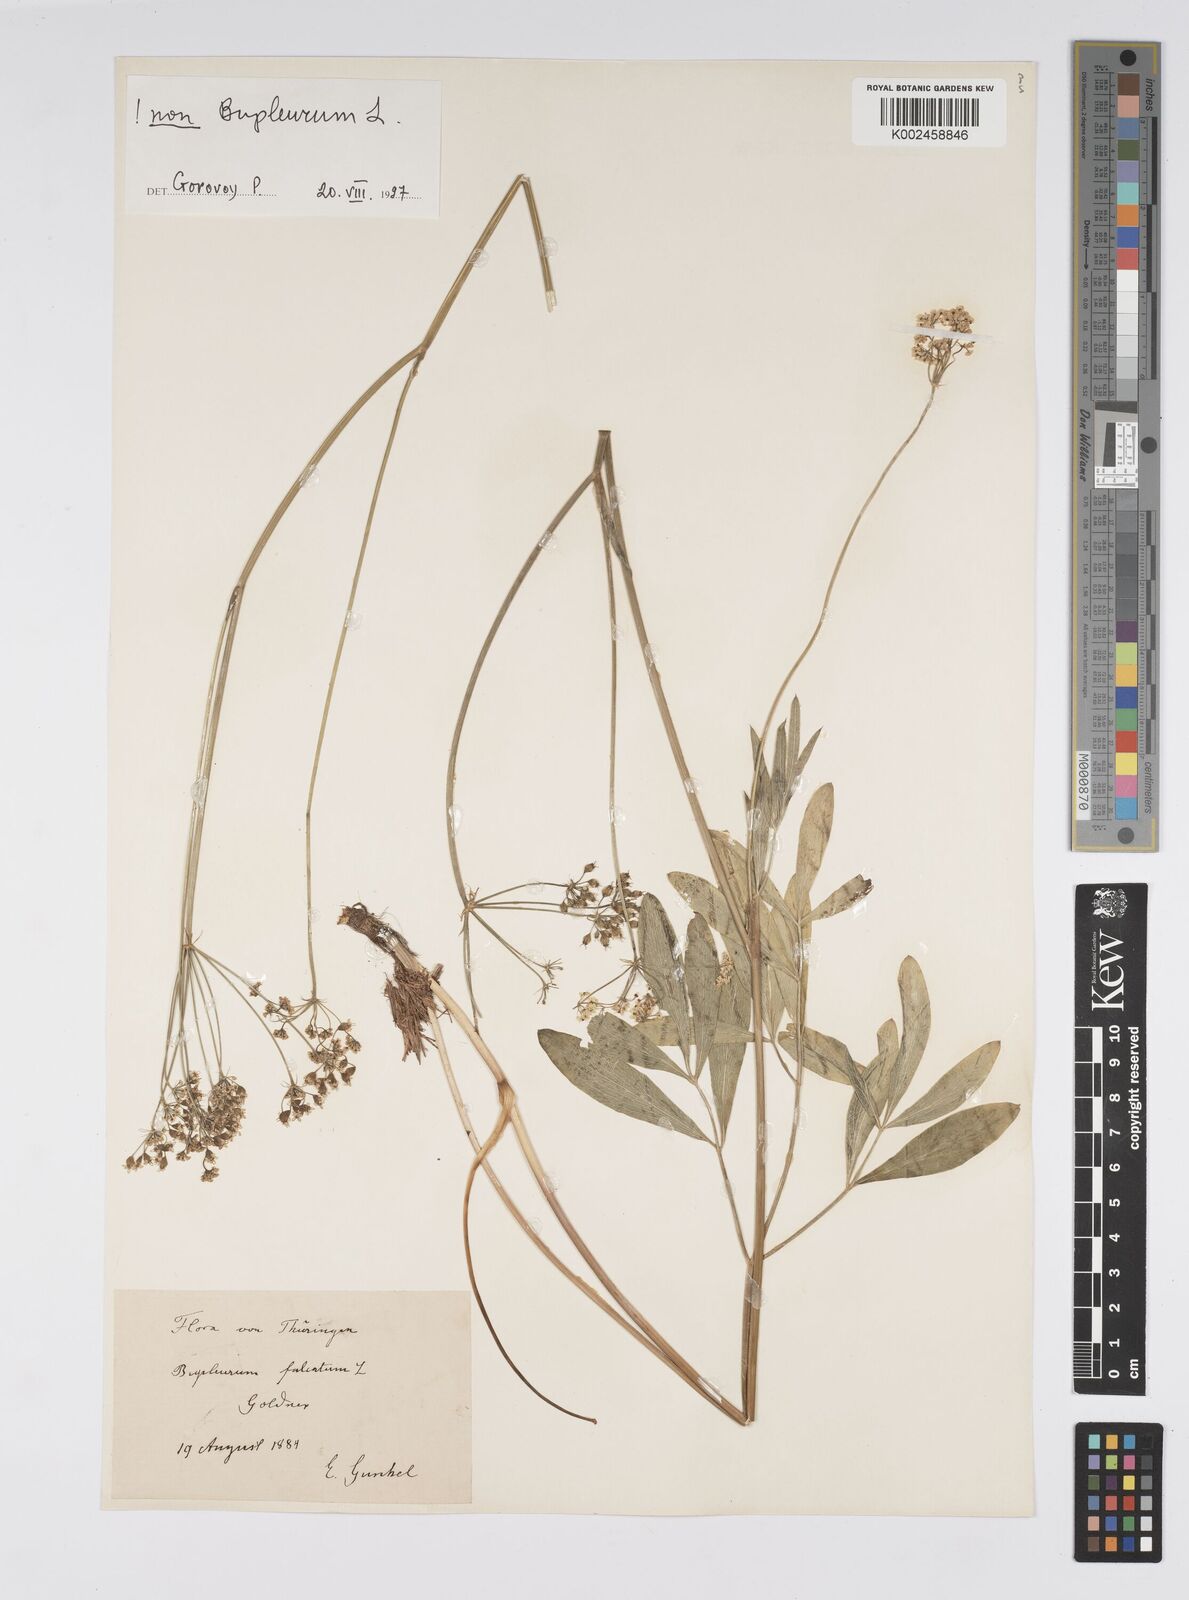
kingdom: Plantae
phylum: Tracheophyta
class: Magnoliopsida
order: Apiales
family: Apiaceae
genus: Bupleurum
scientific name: Bupleurum falcatum
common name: Sickle-leaved hare's-ear
